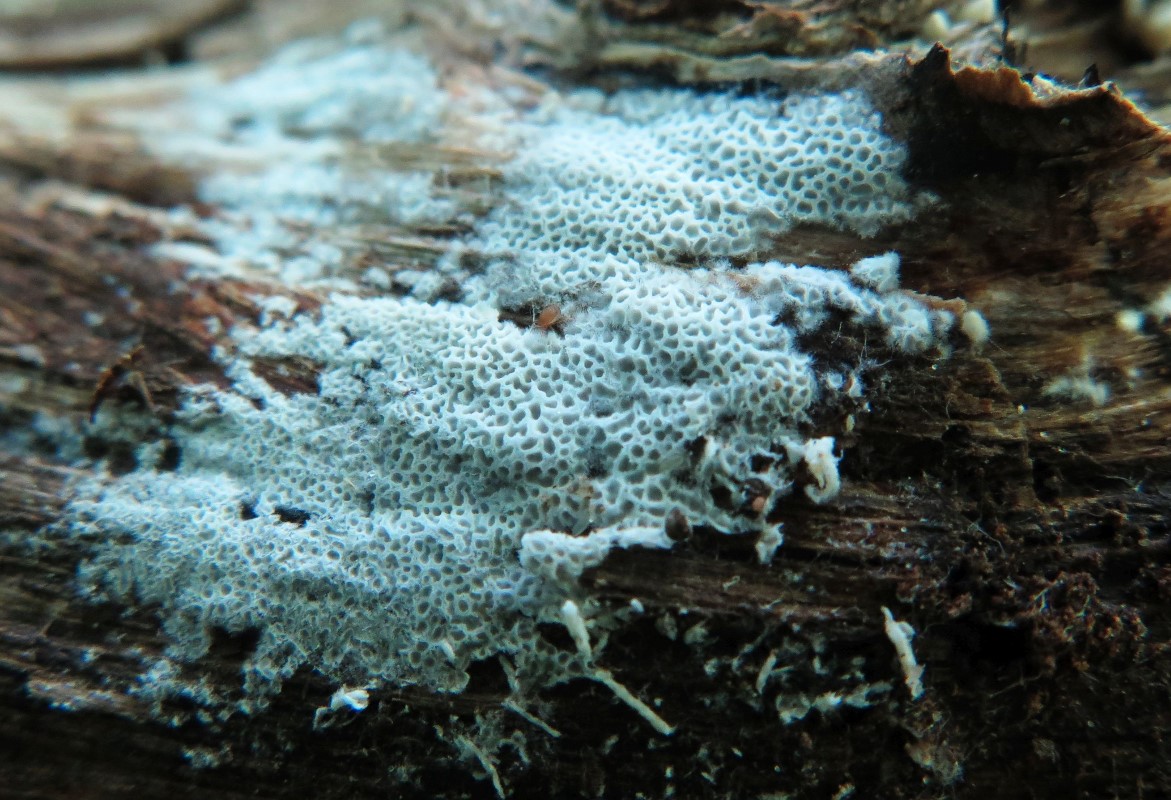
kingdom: Fungi
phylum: Basidiomycota
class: Agaricomycetes
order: Polyporales
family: Irpicaceae
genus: Ceriporia
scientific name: Ceriporia reticulata
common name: netagtig voksporesvamp
